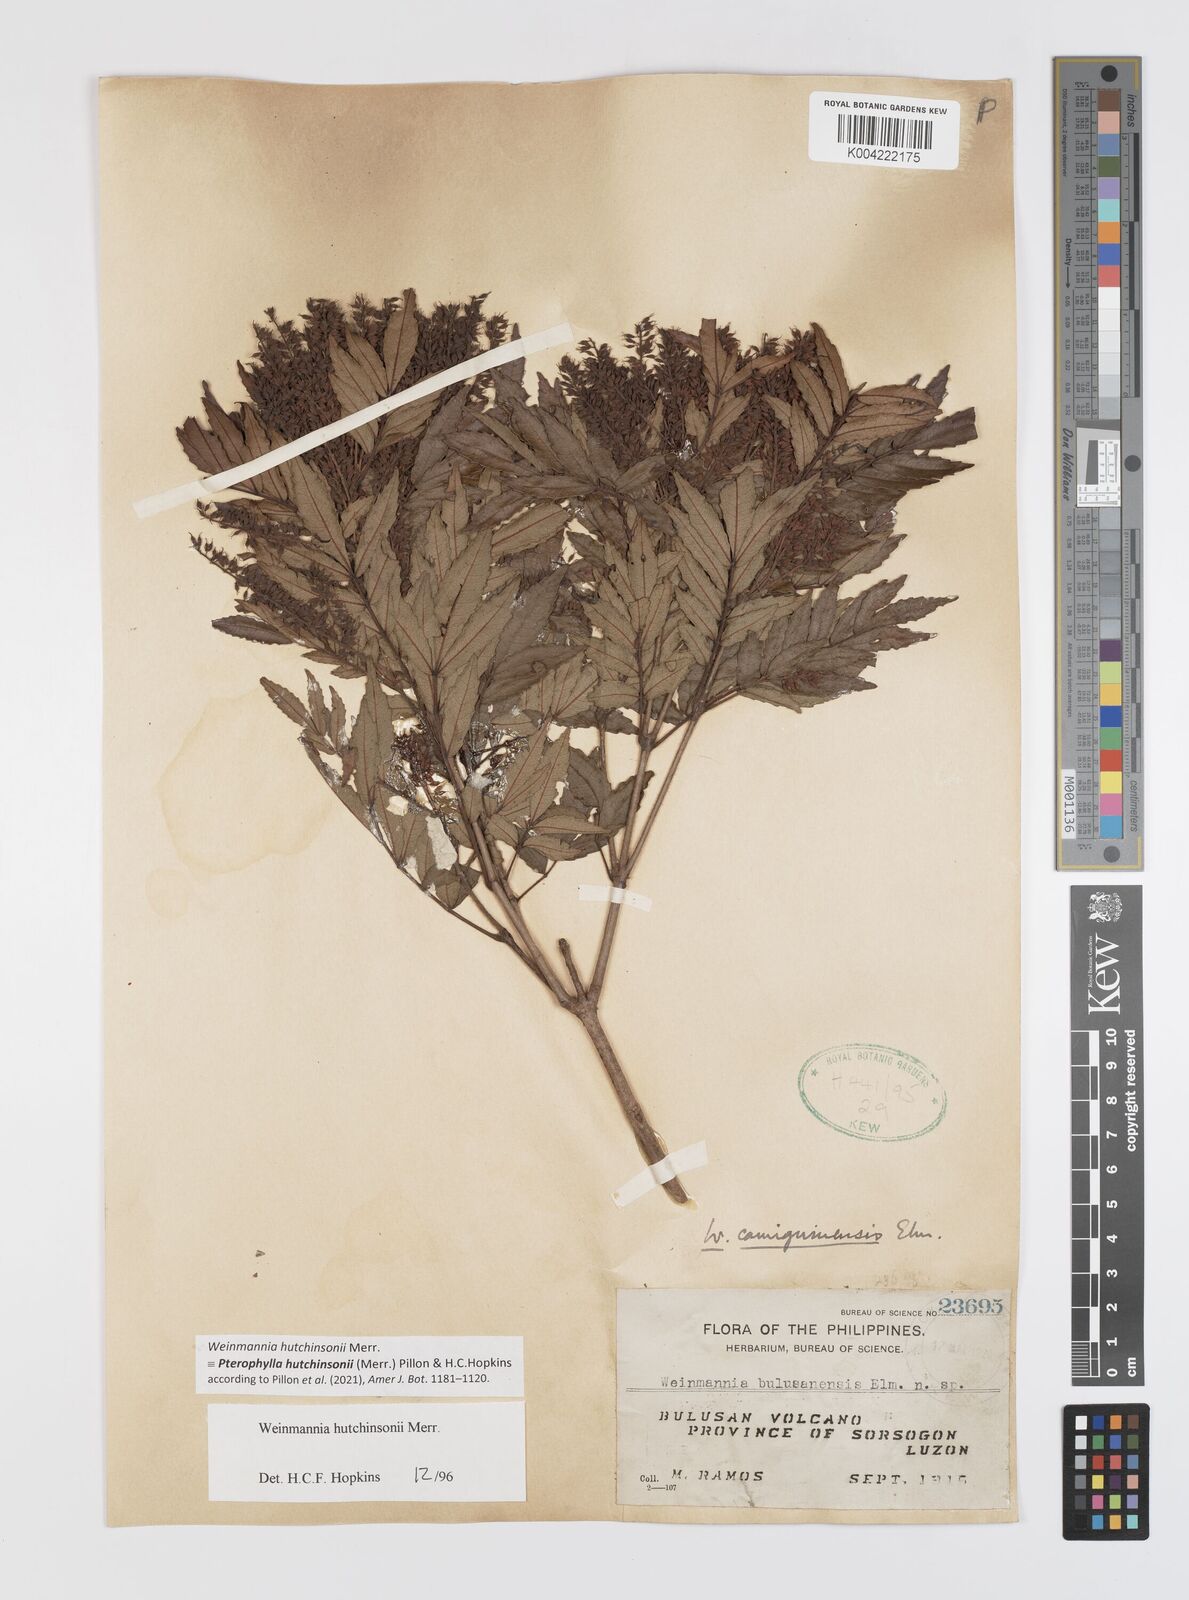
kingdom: Plantae
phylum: Tracheophyta
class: Magnoliopsida
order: Oxalidales
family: Cunoniaceae
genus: Pterophylla
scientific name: Pterophylla hutchinsonii
